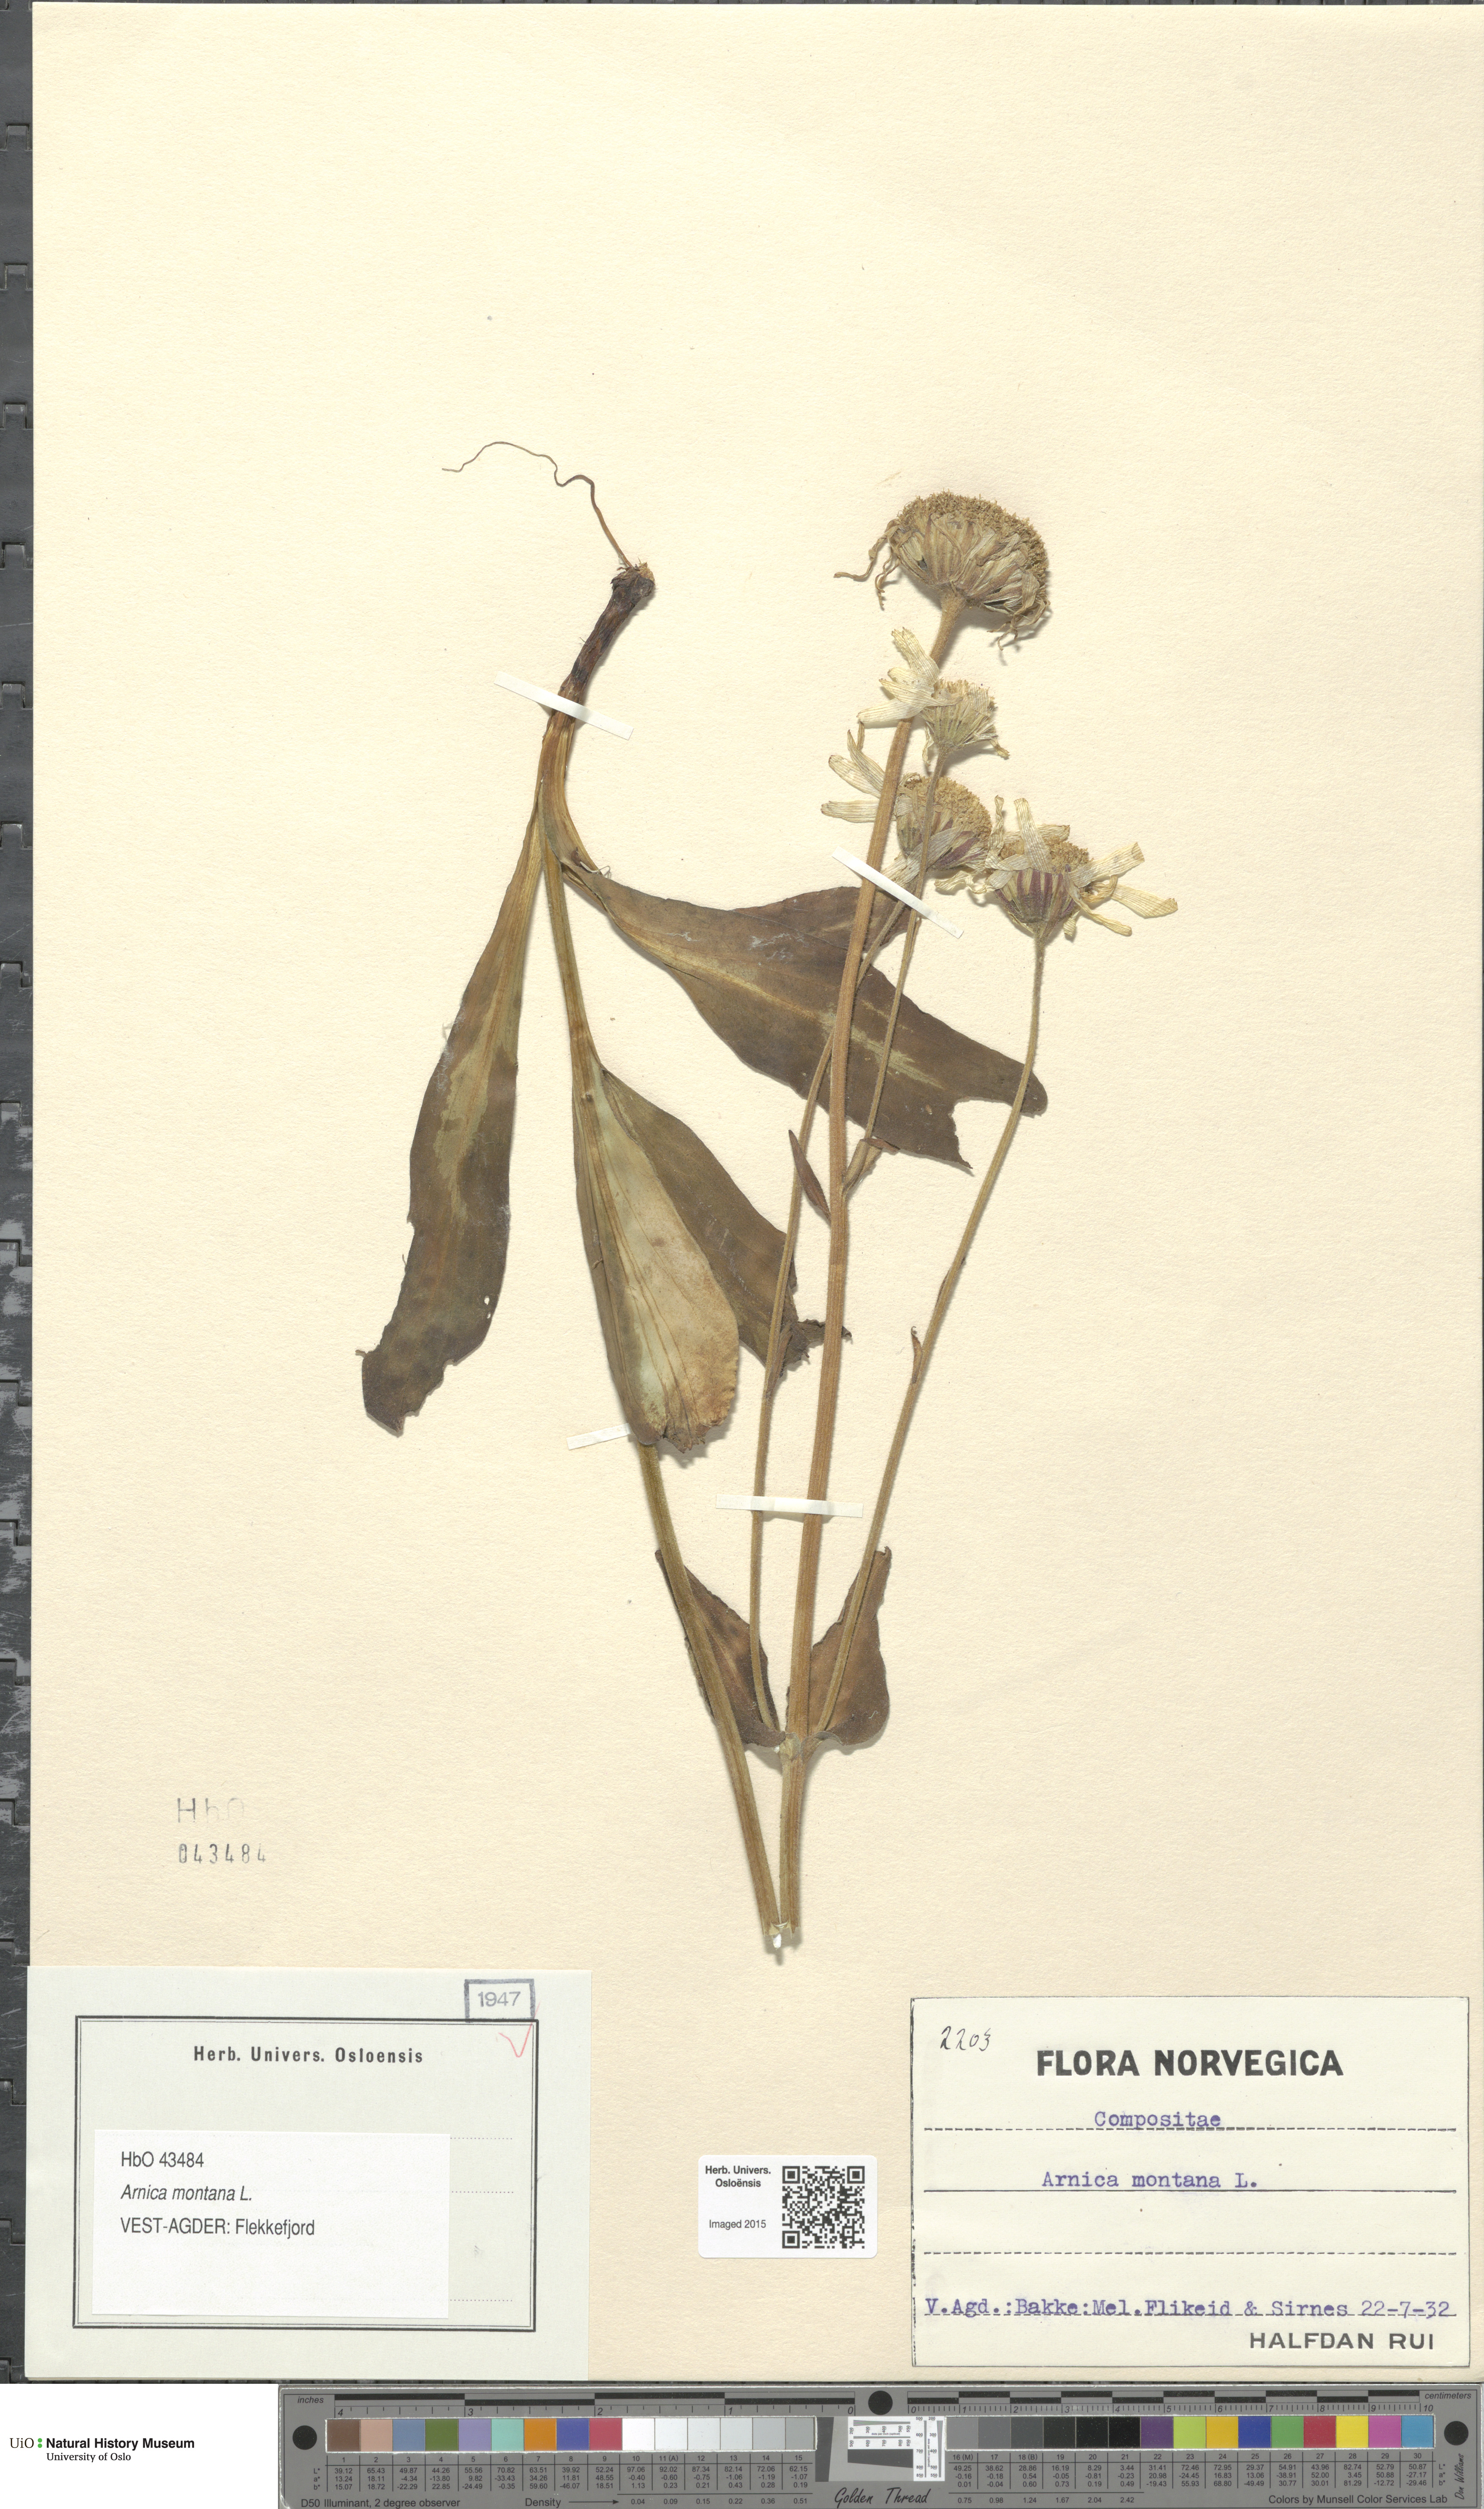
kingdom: Plantae
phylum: Tracheophyta
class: Magnoliopsida
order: Asterales
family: Asteraceae
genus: Arnica
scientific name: Arnica montana
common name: Leopard's bane
